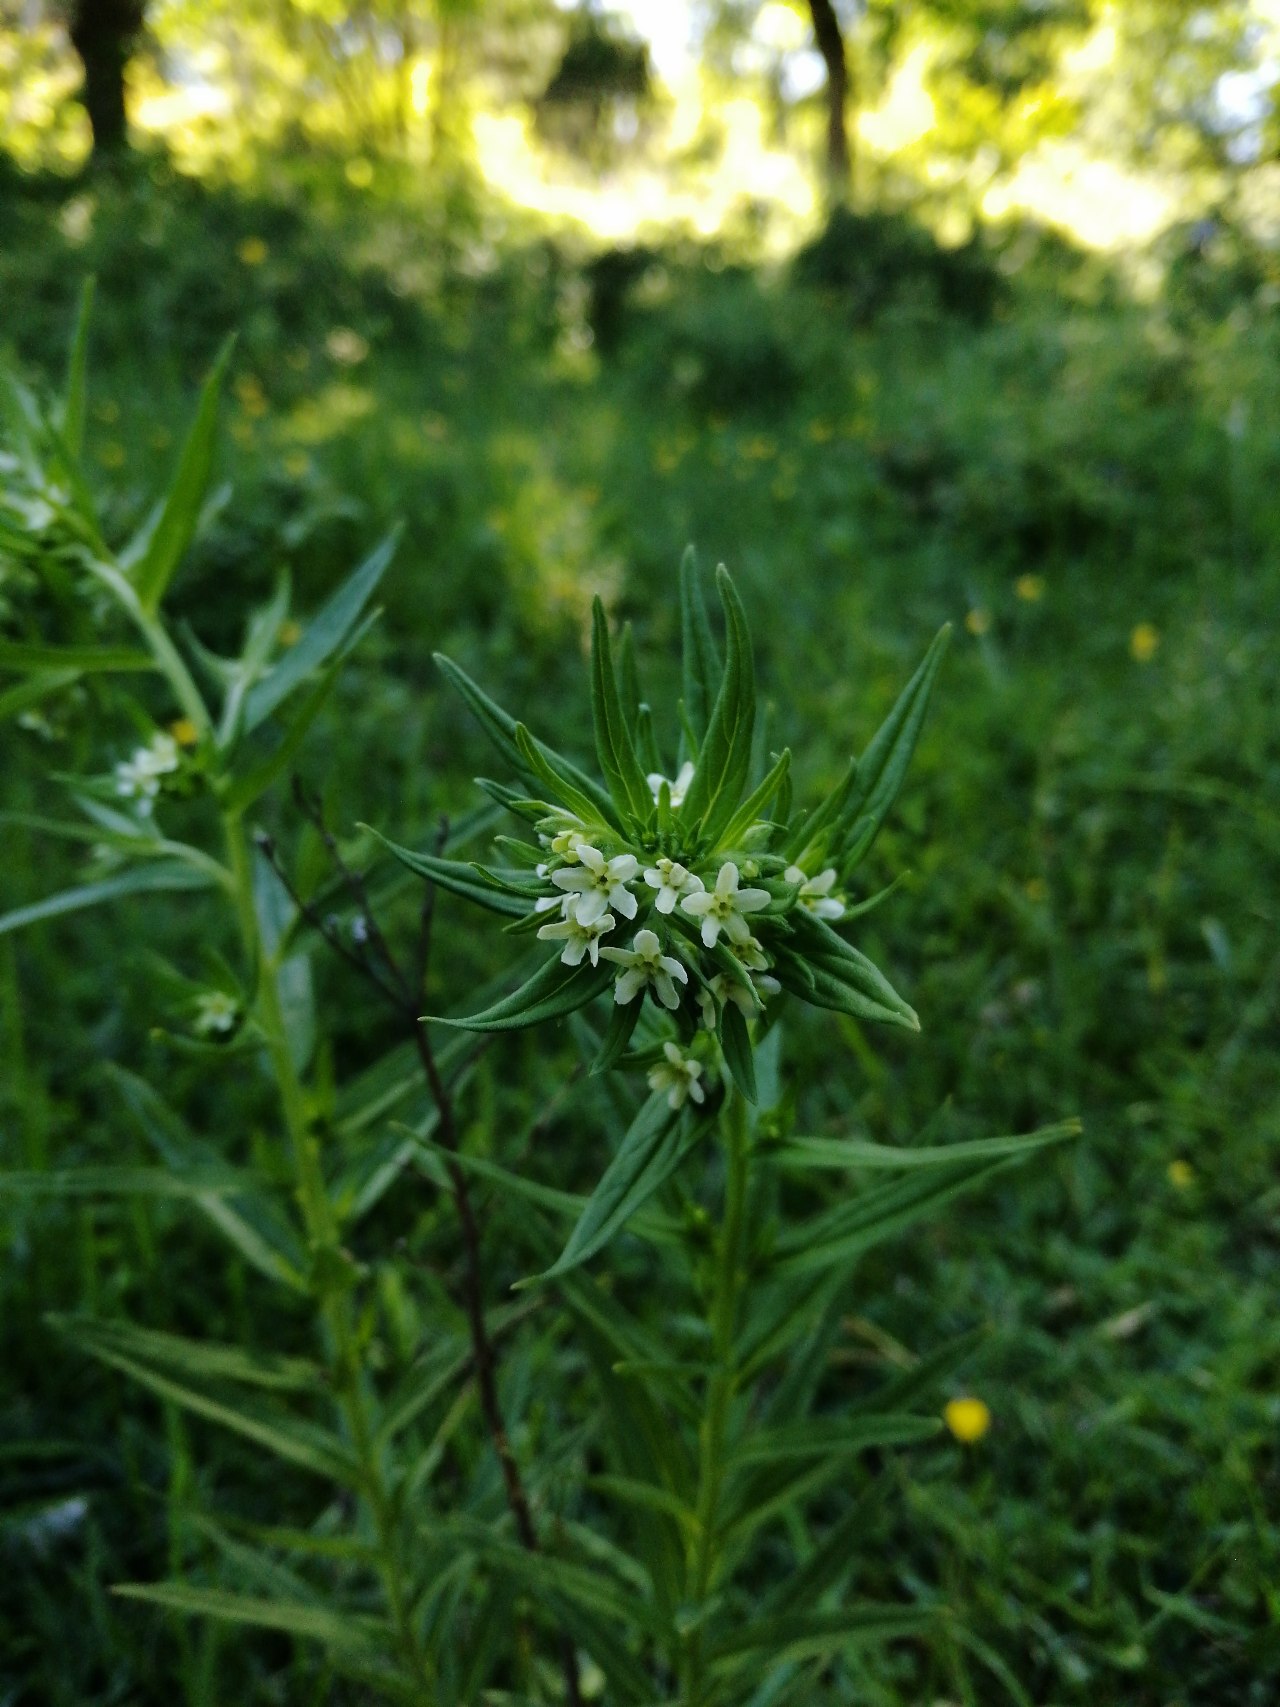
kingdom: Plantae
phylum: Tracheophyta
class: Magnoliopsida
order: Boraginales
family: Boraginaceae
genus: Lithospermum
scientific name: Lithospermum officinale
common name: Læge-stenfrø
